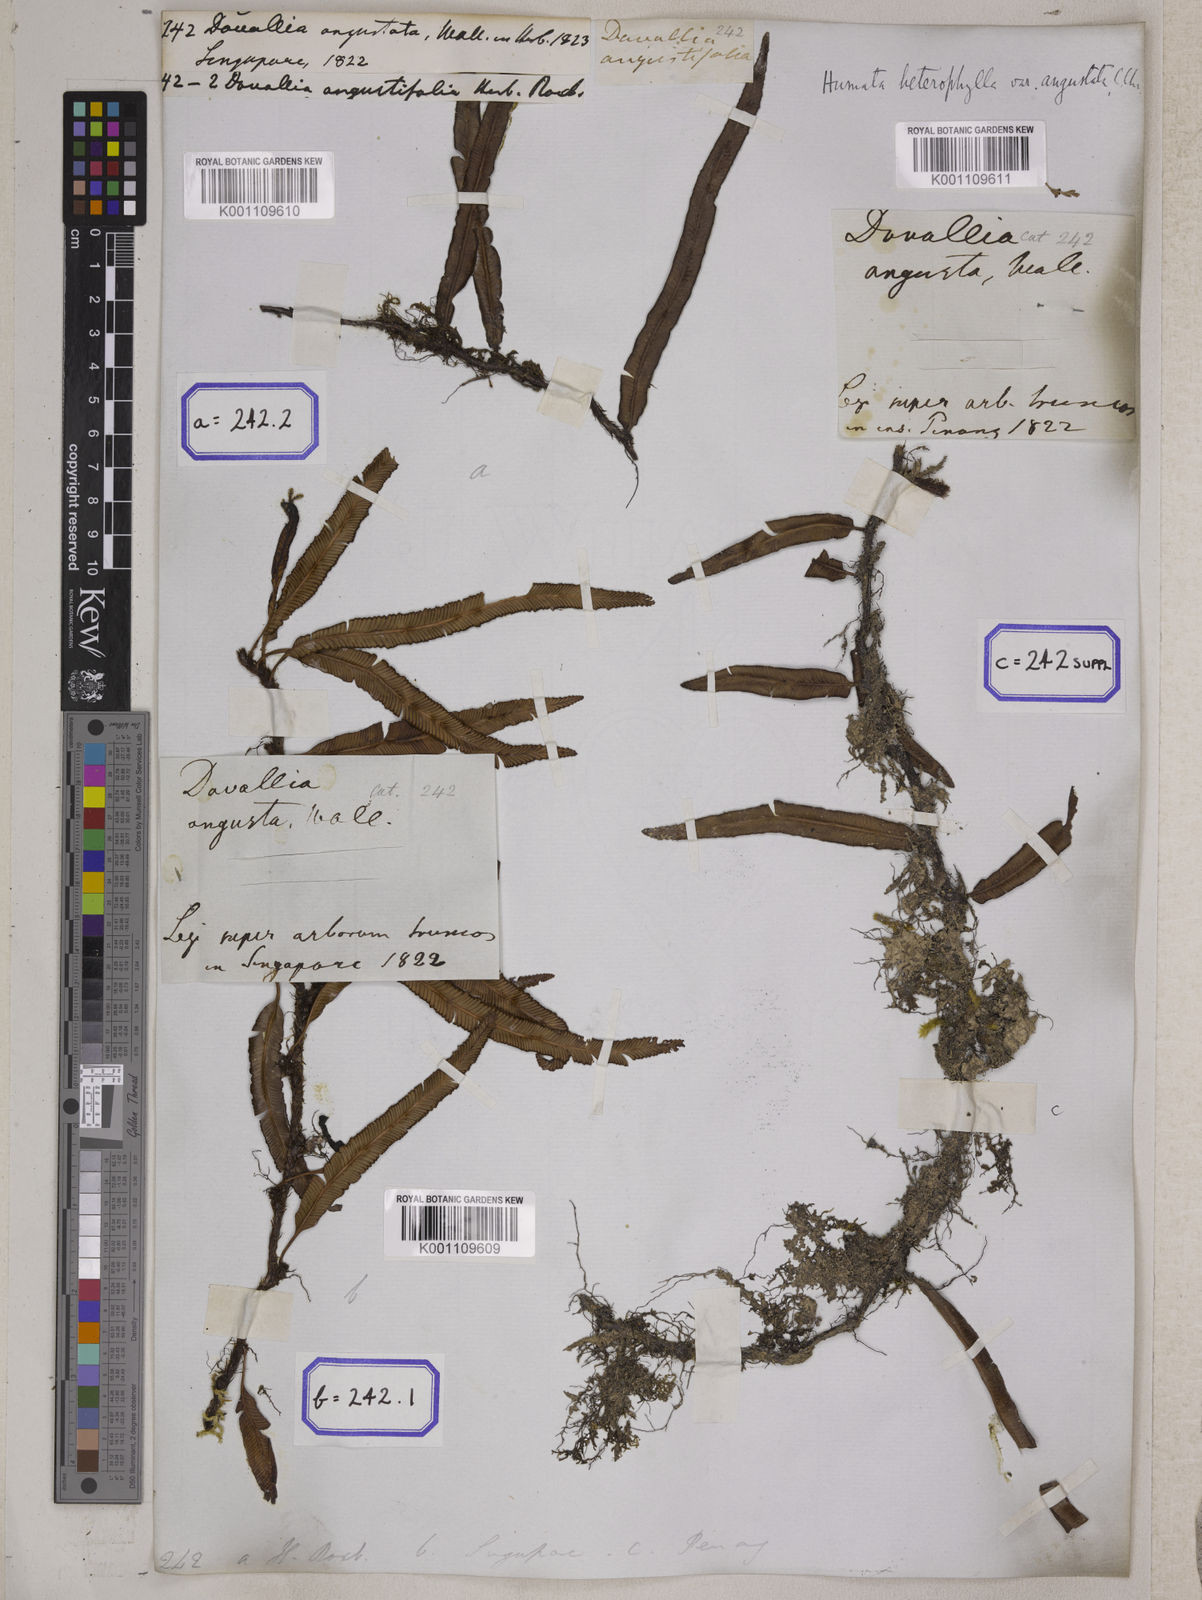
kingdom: Plantae
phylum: Tracheophyta
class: Polypodiopsida
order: Polypodiales
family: Davalliaceae
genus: Davallia
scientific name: Davallia angustata
